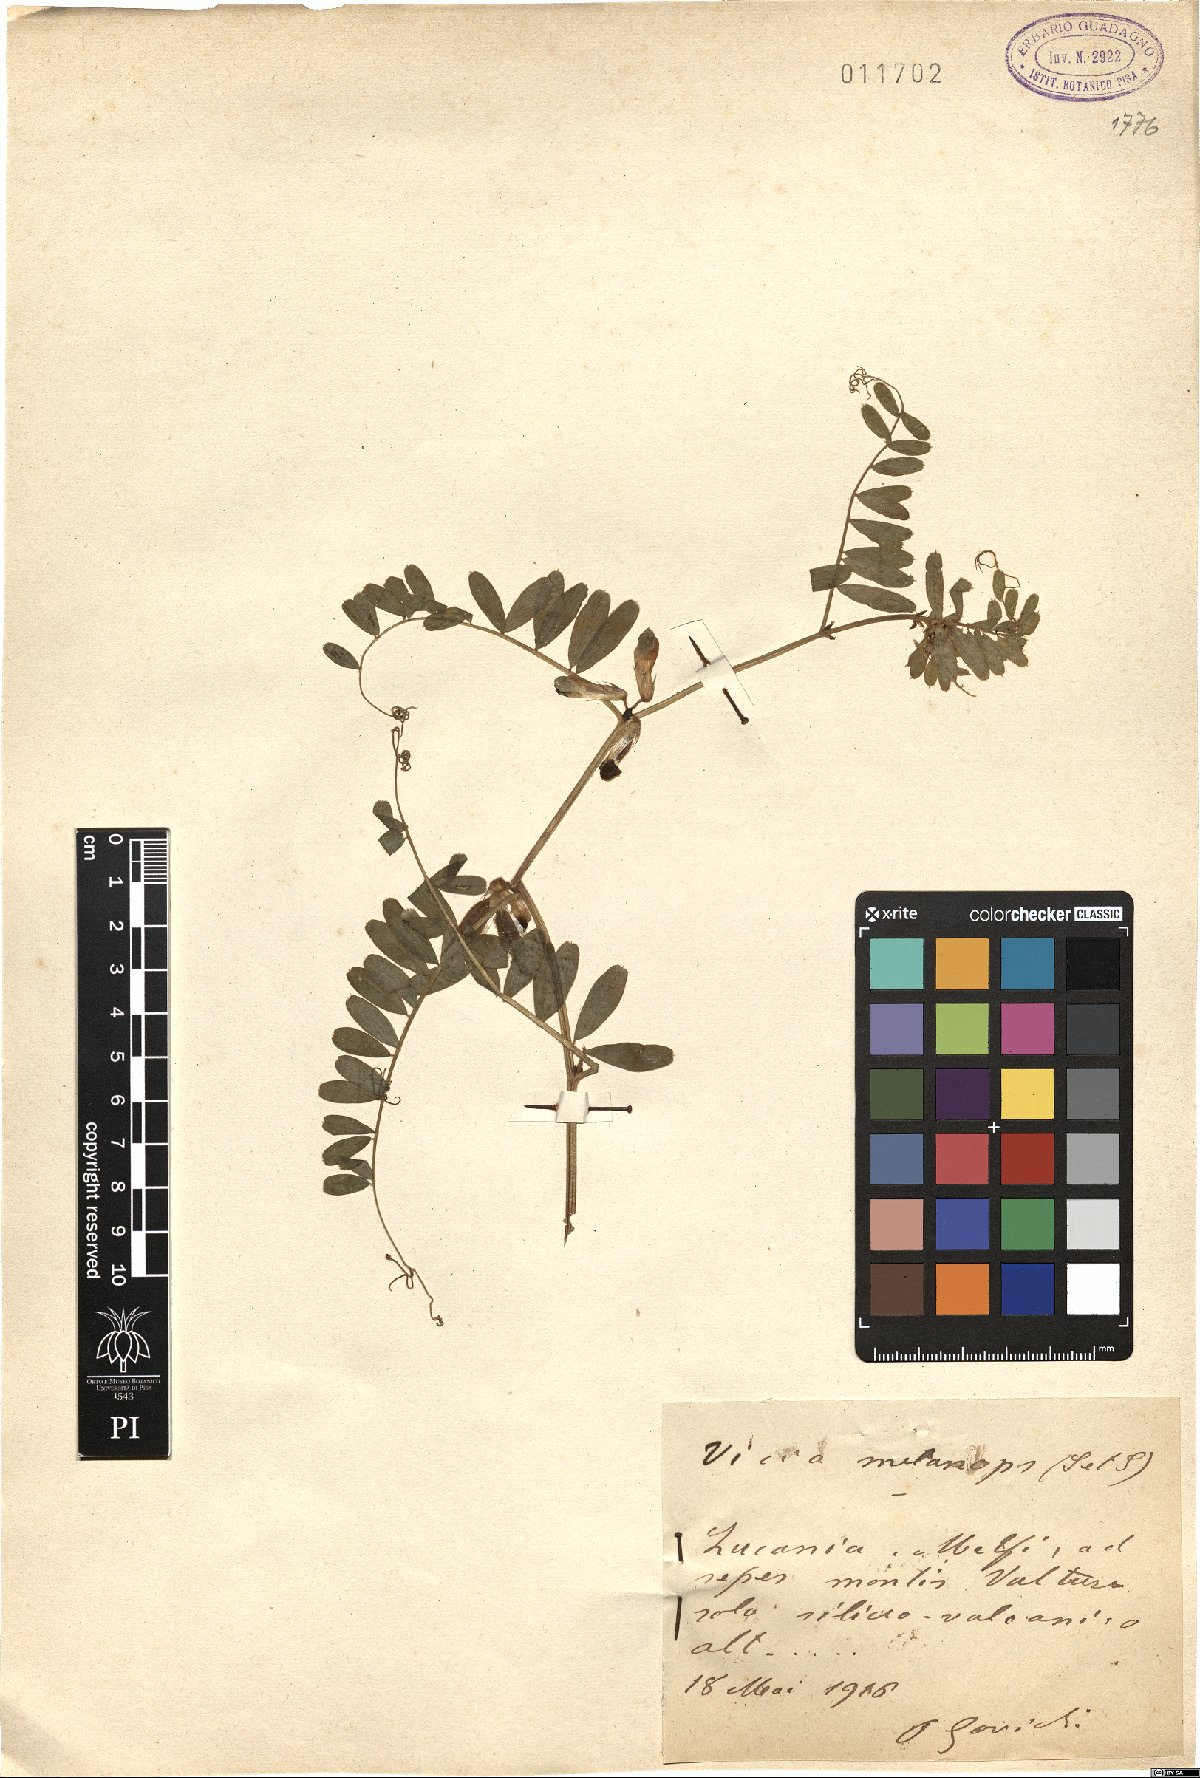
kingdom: Plantae
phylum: Tracheophyta
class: Magnoliopsida
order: Fabales
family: Fabaceae
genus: Vicia
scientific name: Vicia melanops
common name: Black-eyed vetch
